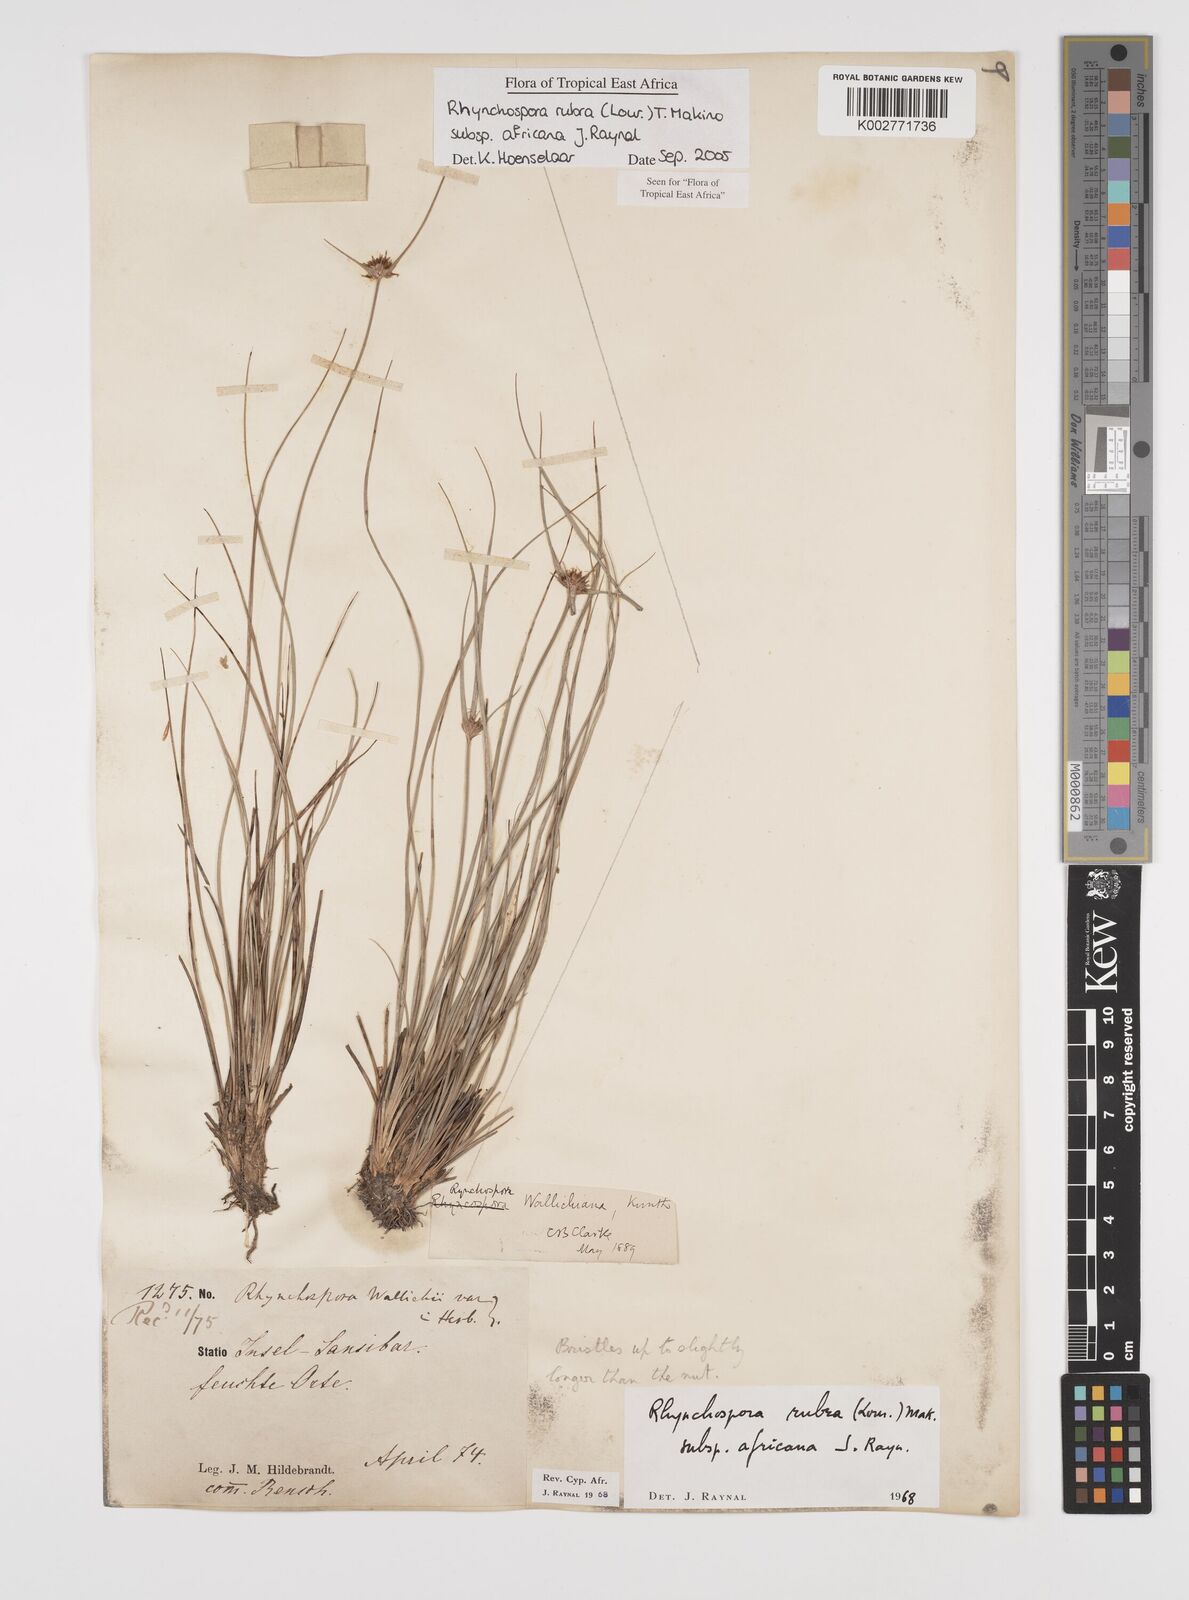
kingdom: Plantae
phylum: Tracheophyta
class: Liliopsida
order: Poales
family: Cyperaceae
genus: Rhynchospora
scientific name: Rhynchospora rubra
